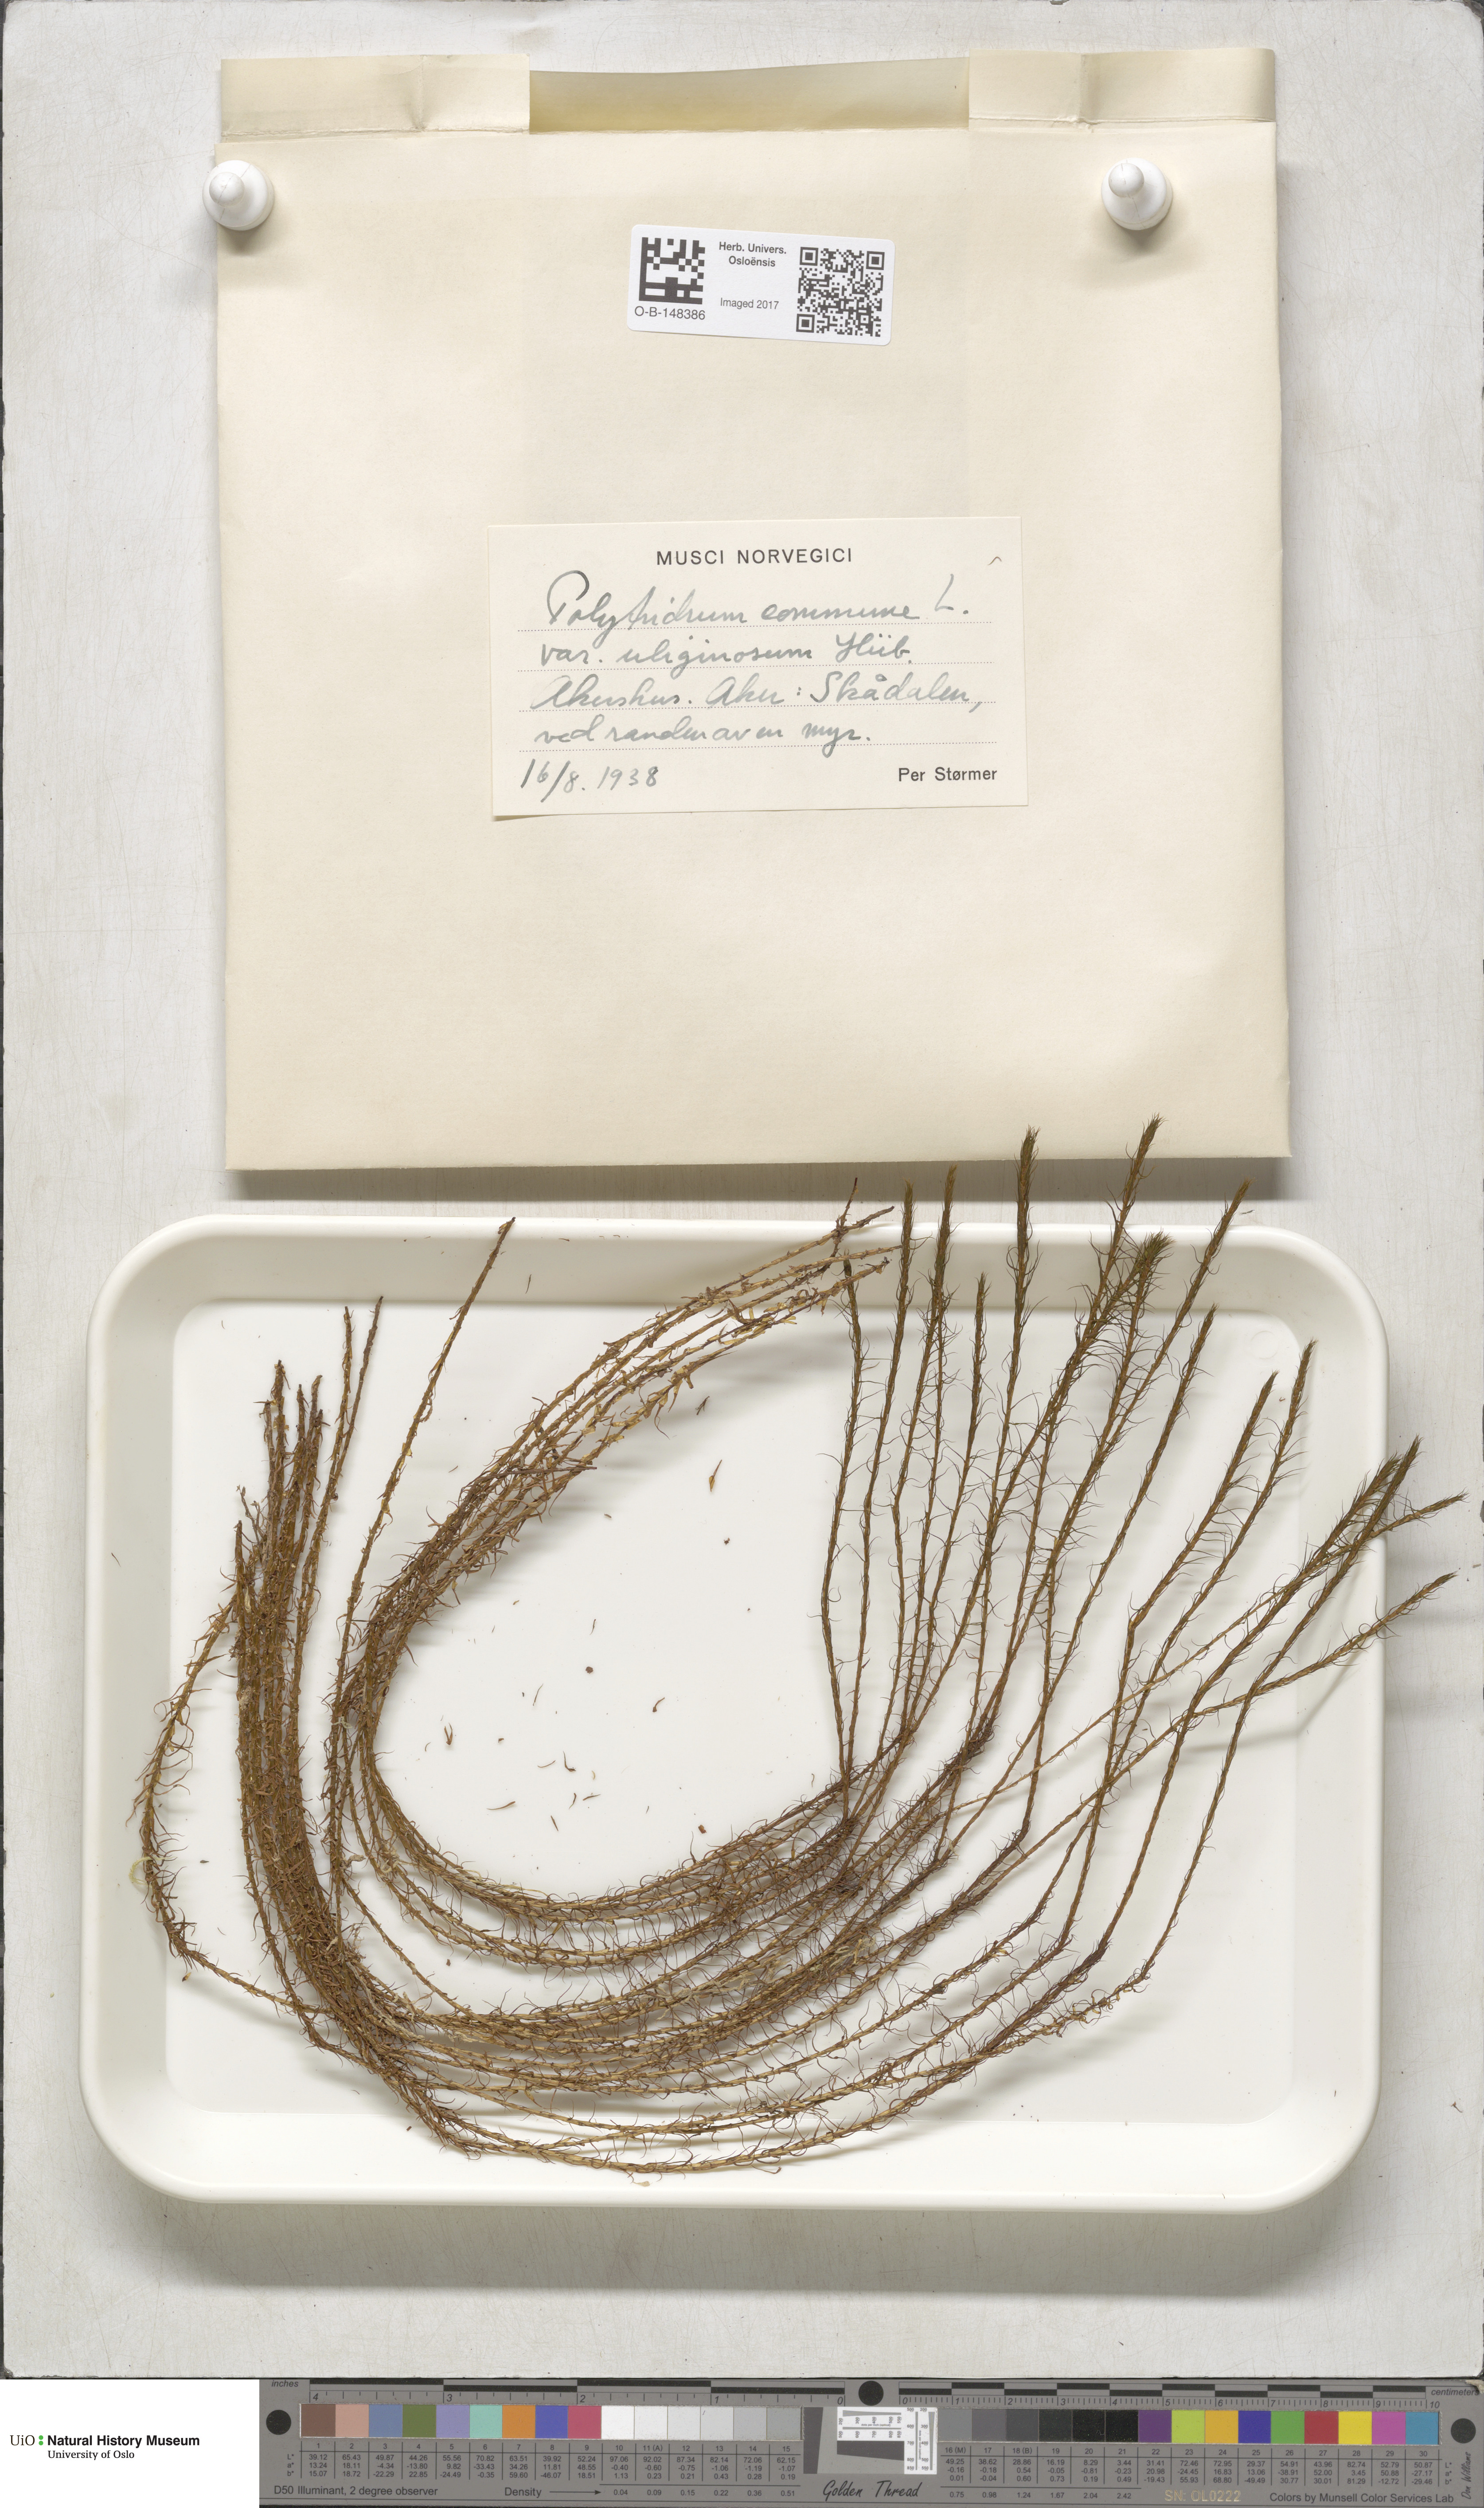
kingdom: Plantae
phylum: Bryophyta
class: Polytrichopsida
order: Polytrichales
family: Polytrichaceae
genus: Polytrichum
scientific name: Polytrichum commune
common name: Common haircap
